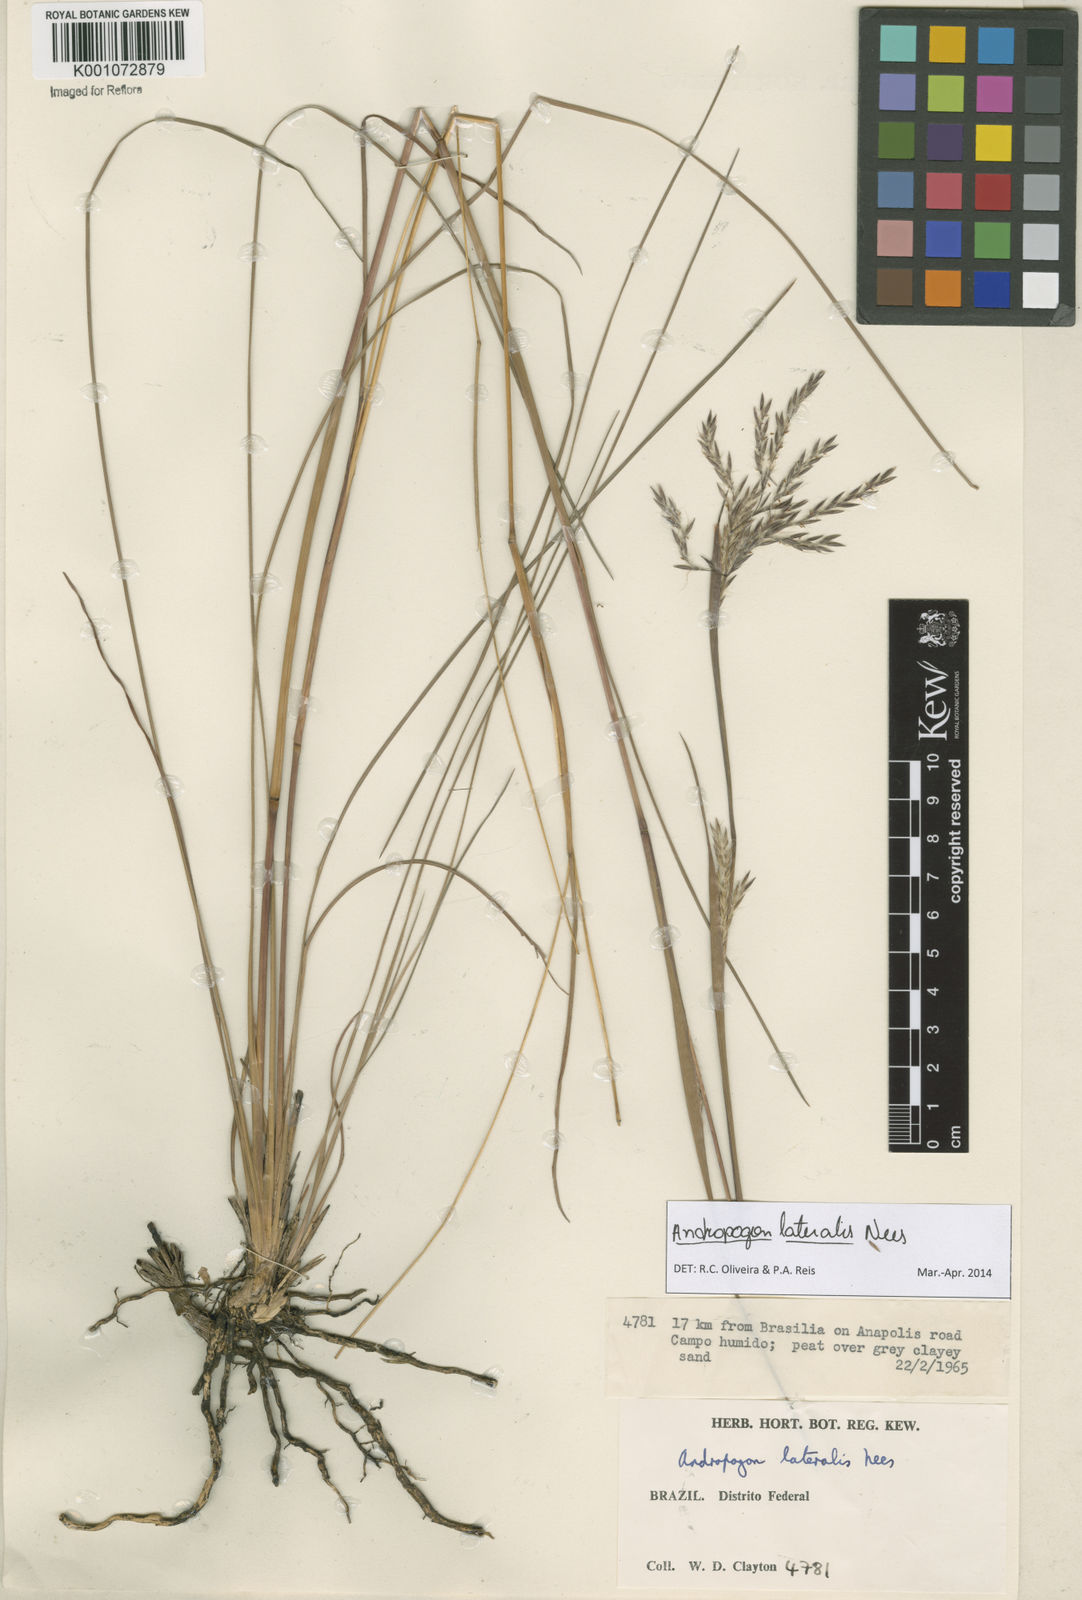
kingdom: Plantae
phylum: Tracheophyta
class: Liliopsida
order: Poales
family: Poaceae
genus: Andropogon
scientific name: Andropogon lateralis
